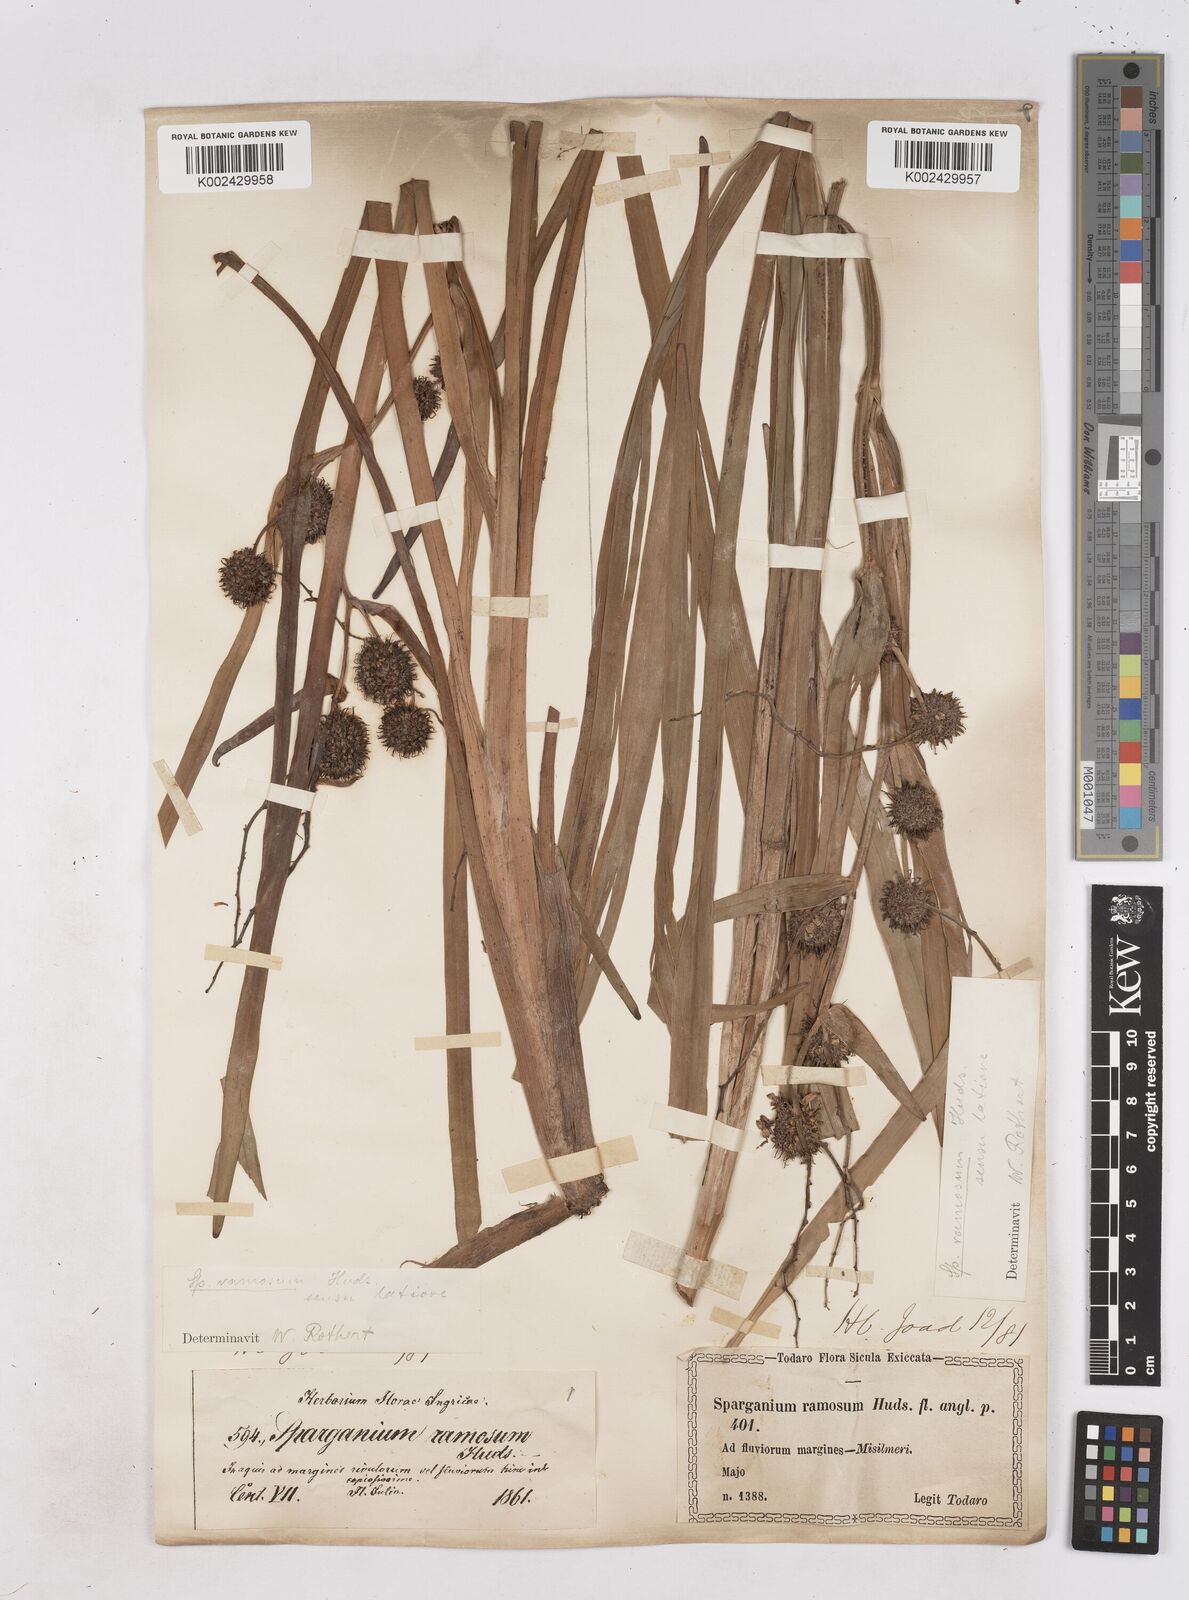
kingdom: Plantae
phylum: Tracheophyta
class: Liliopsida
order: Poales
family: Typhaceae
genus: Sparganium
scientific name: Sparganium erectum
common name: Branched bur-reed
